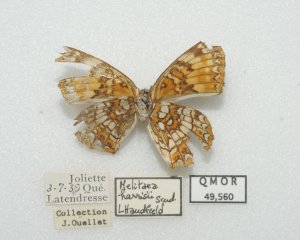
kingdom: Animalia
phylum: Arthropoda
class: Insecta
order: Lepidoptera
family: Nymphalidae
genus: Chlosyne
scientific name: Chlosyne harrisii
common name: Harris's Checkerspot
